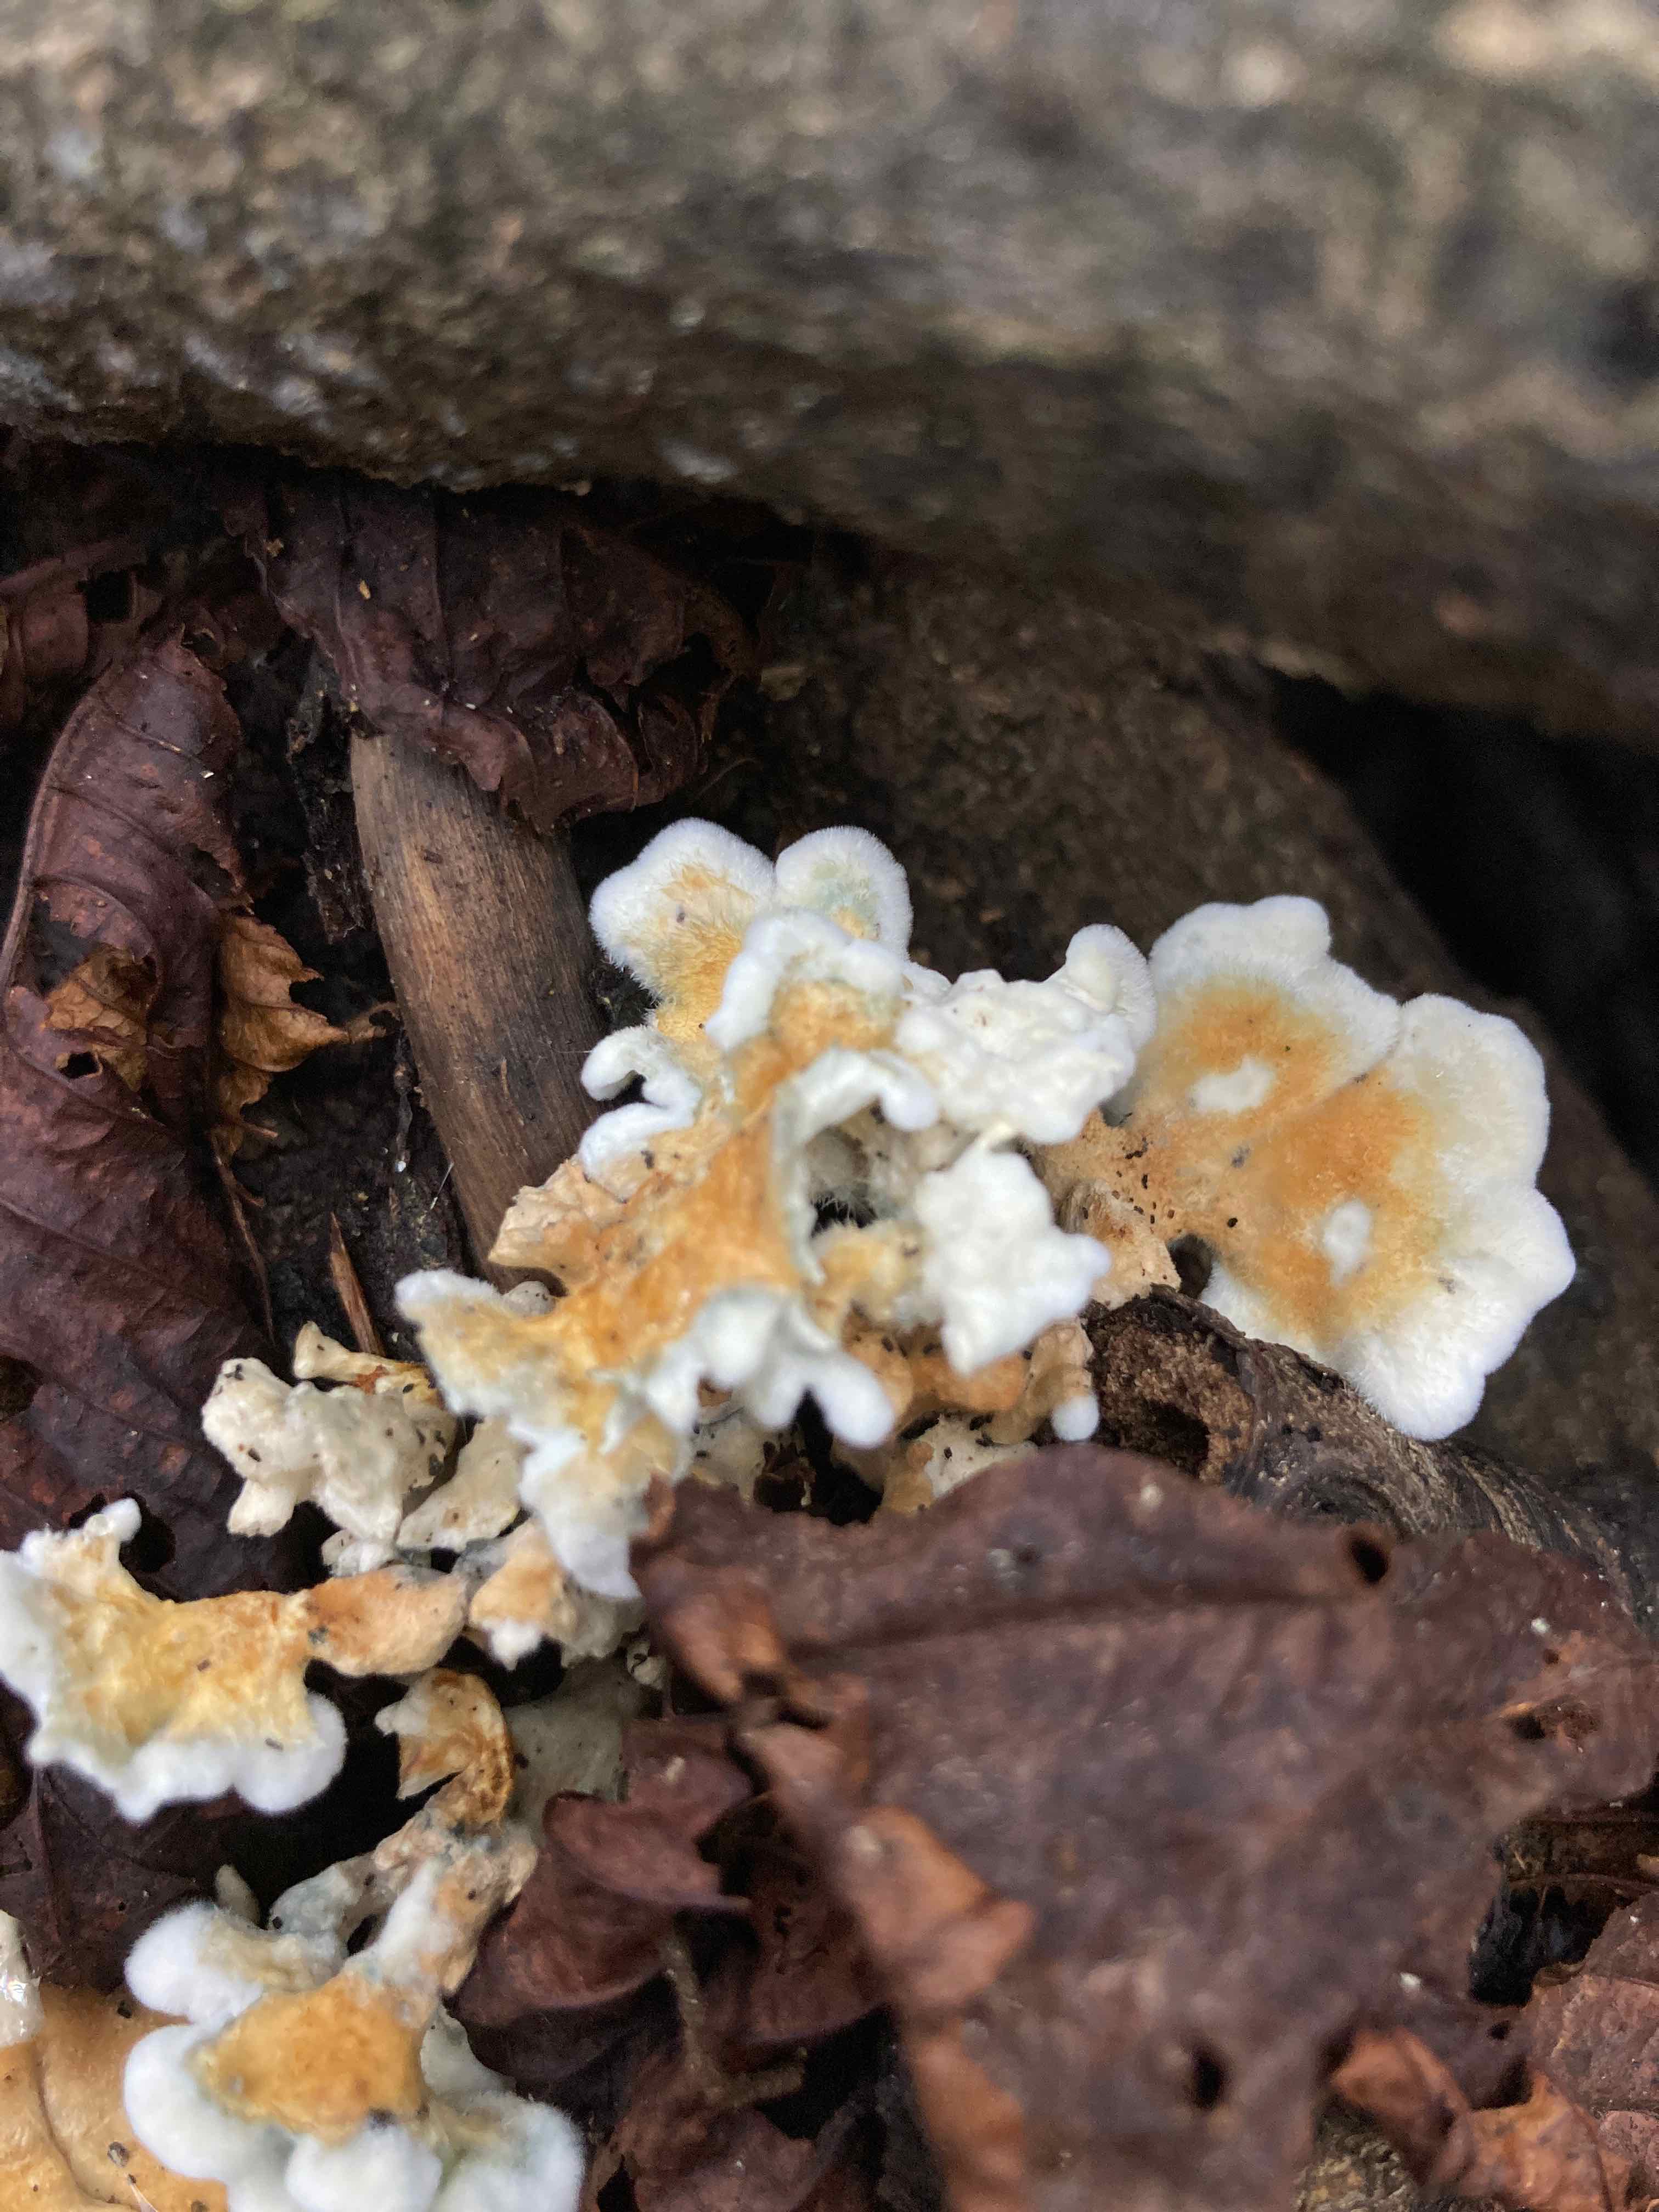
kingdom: Fungi
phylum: Basidiomycota
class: Agaricomycetes
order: Amylocorticiales
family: Amylocorticiaceae
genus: Plicaturopsis
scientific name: Plicaturopsis crispa
